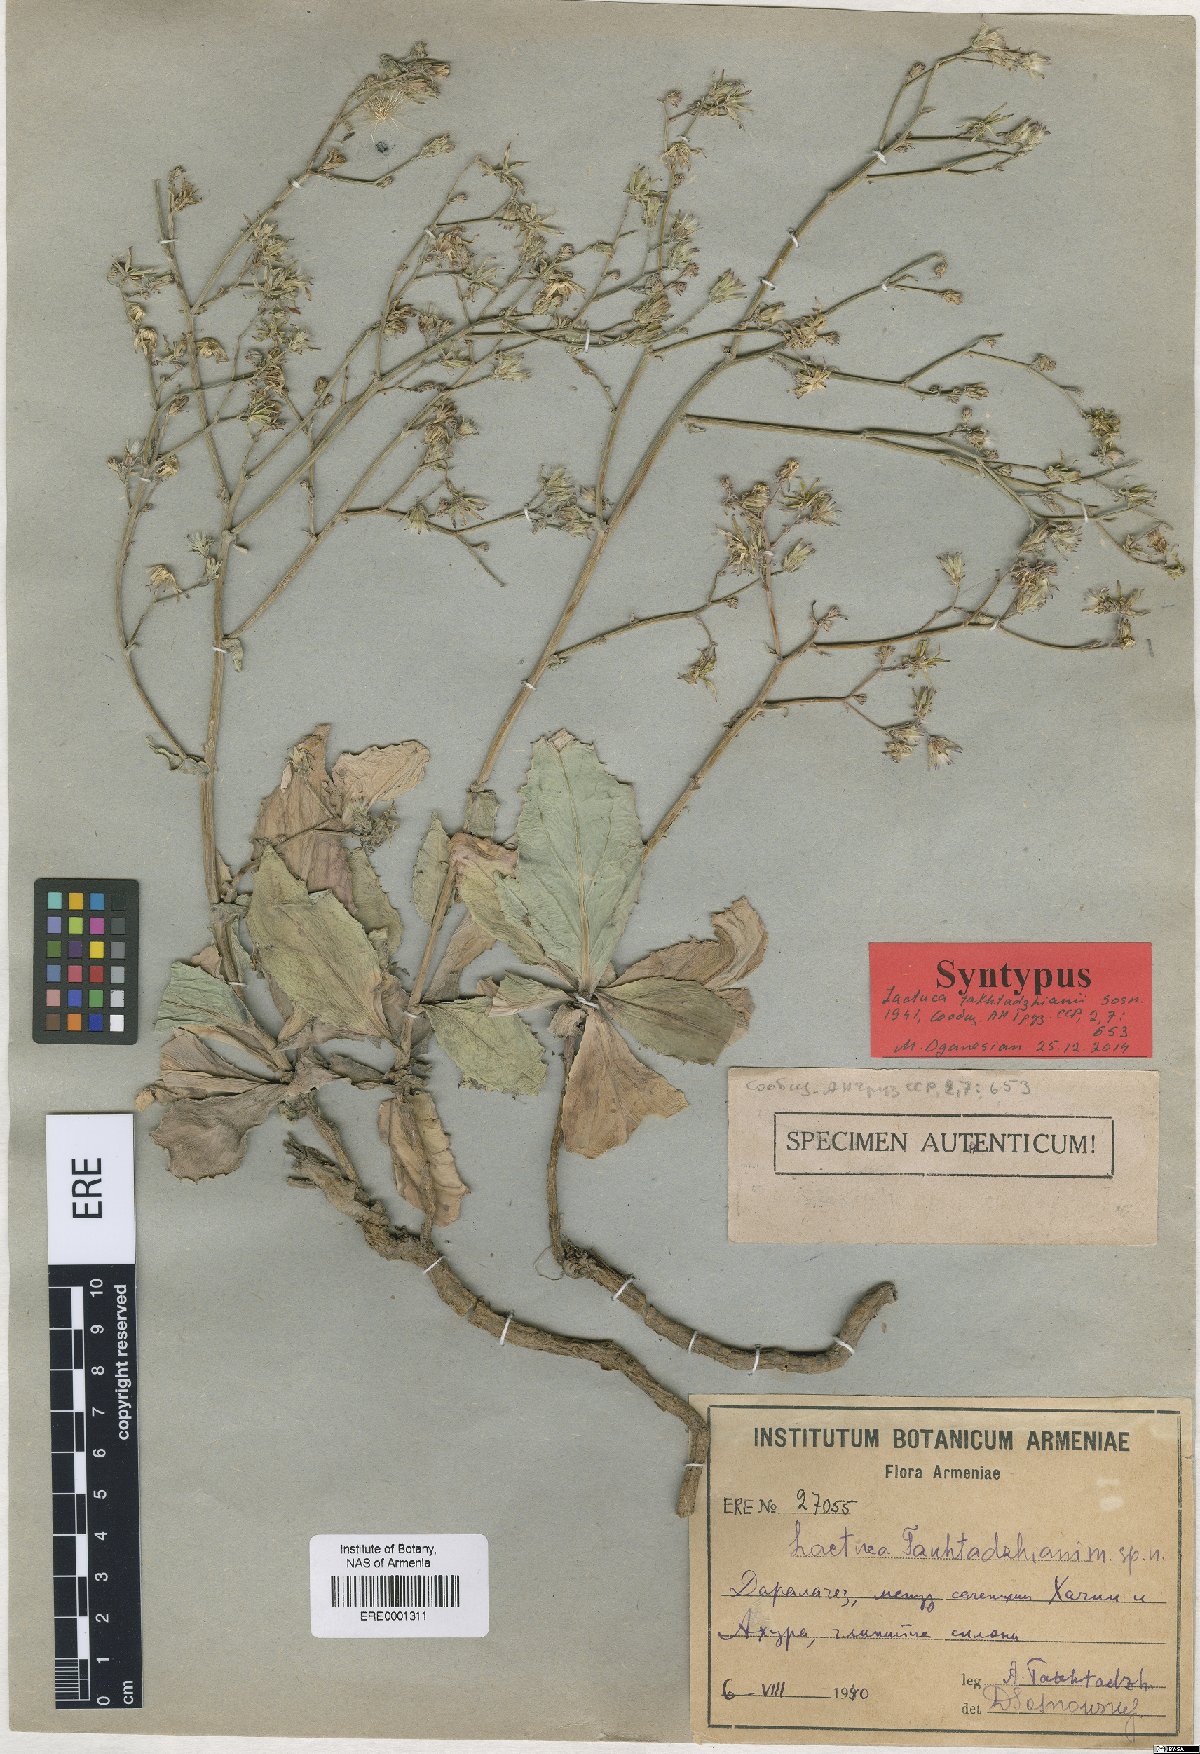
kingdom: Plantae
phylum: Tracheophyta
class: Magnoliopsida
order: Asterales
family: Asteraceae
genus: Lactuca
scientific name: Lactuca takhtadzhianii
